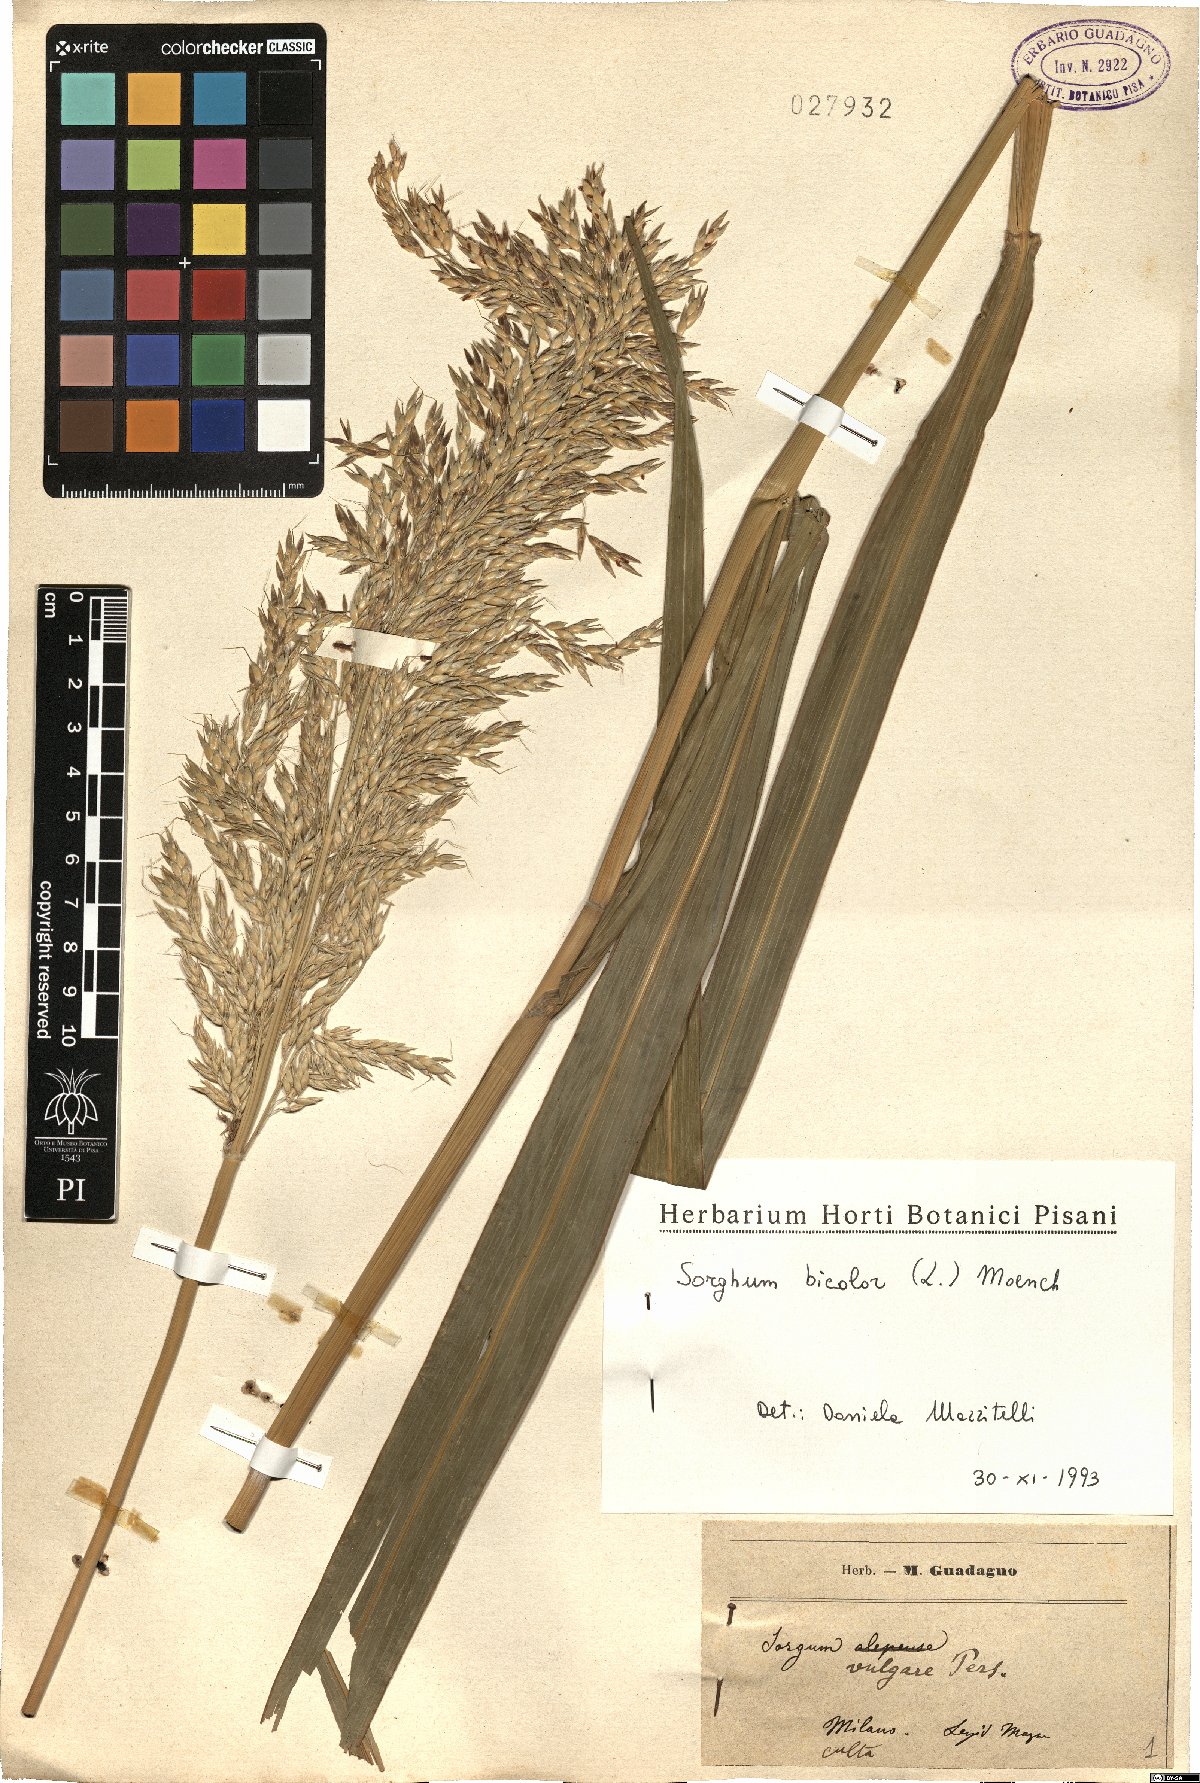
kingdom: Plantae
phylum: Tracheophyta
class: Liliopsida
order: Poales
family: Poaceae
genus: Sorghum
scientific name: Sorghum bicolor
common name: Sorghum
